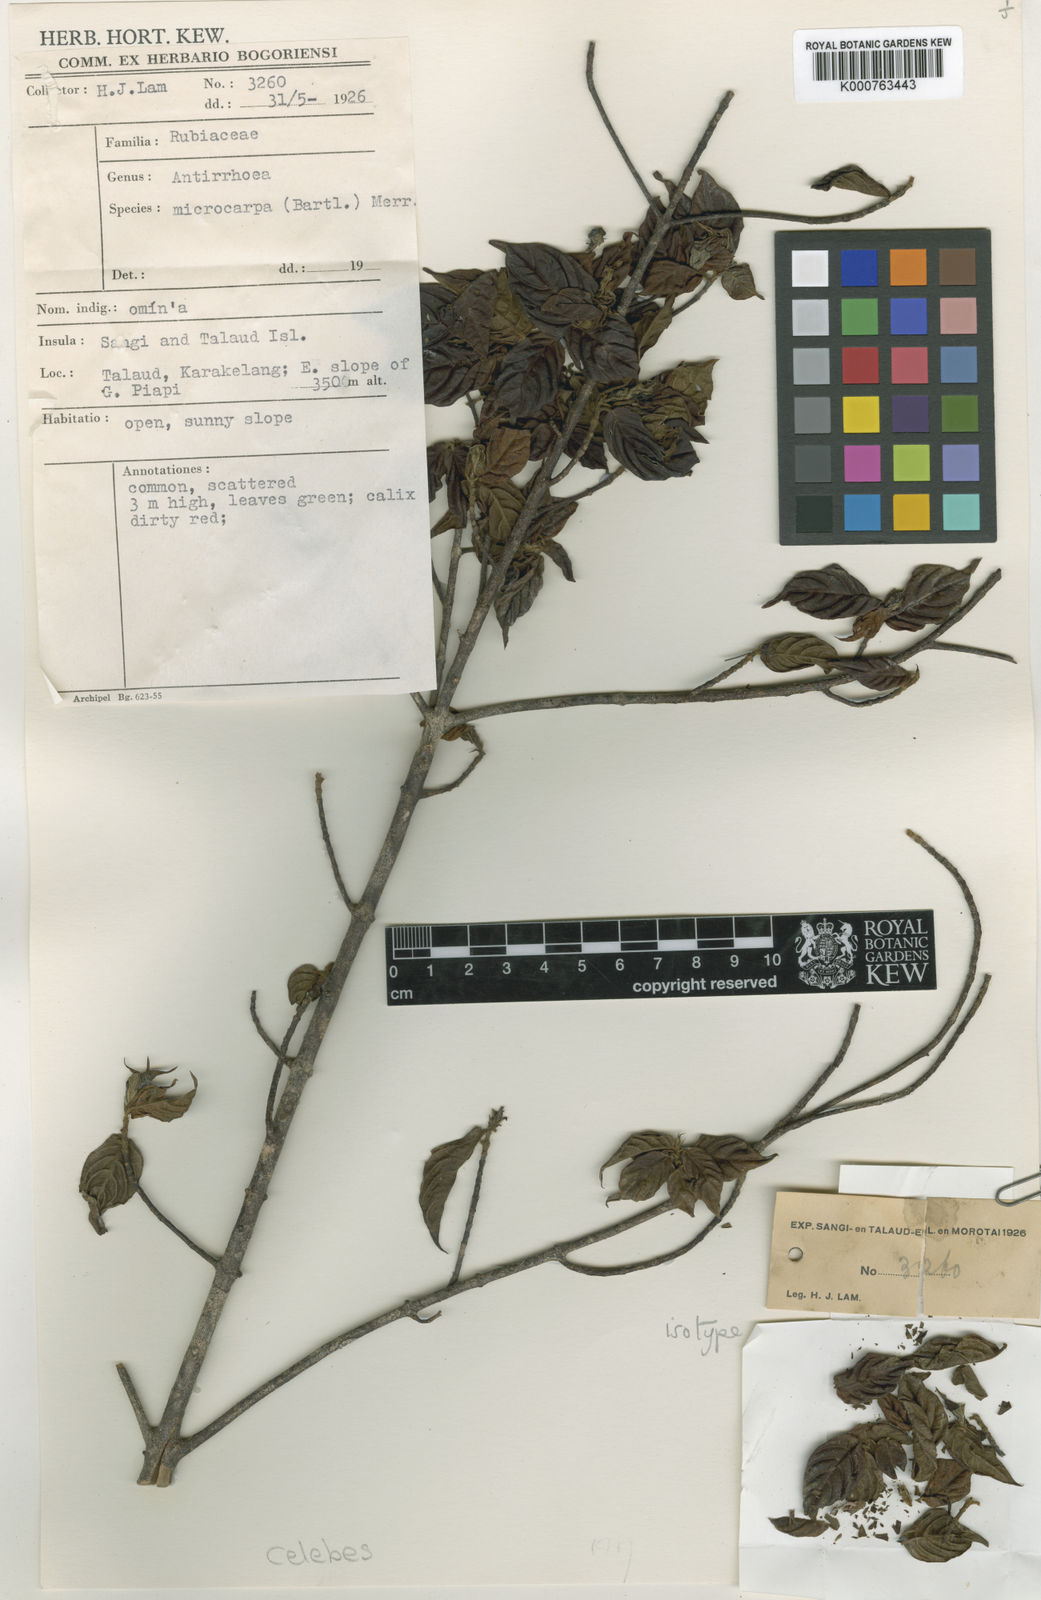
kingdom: Plantae
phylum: Tracheophyta
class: Magnoliopsida
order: Gentianales
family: Rubiaceae
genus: Guettardella
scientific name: Guettardella microphylla
